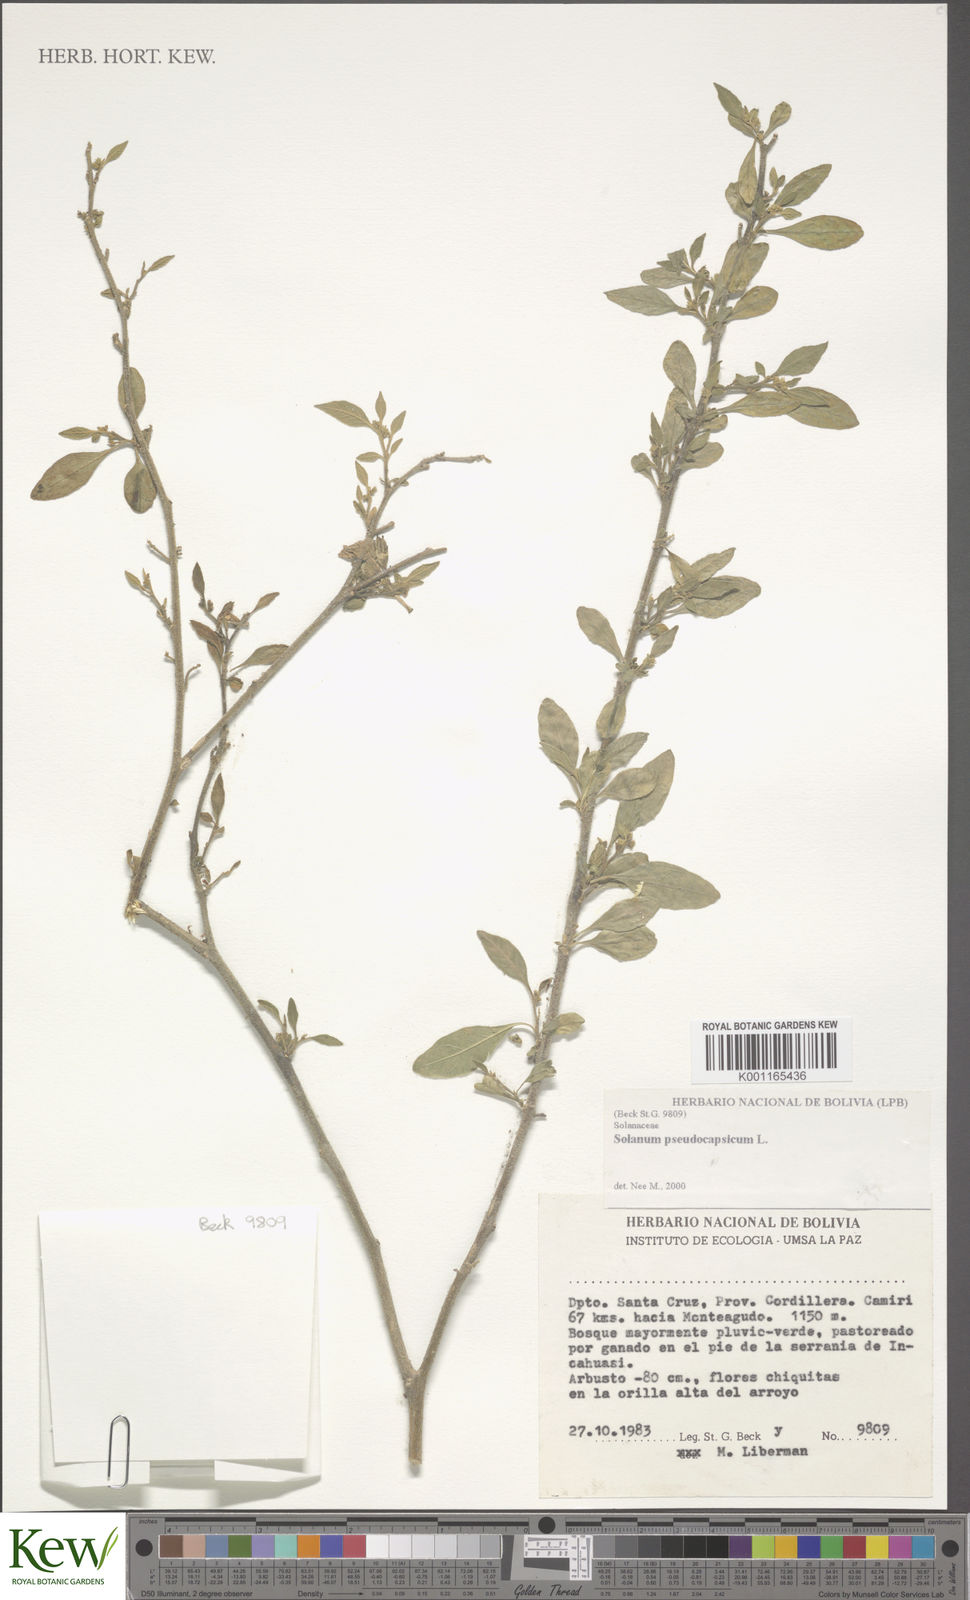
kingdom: Plantae
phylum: Tracheophyta
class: Magnoliopsida
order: Solanales
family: Solanaceae
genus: Solanum
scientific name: Solanum pseudocapsicum
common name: Jerusalem cherry
